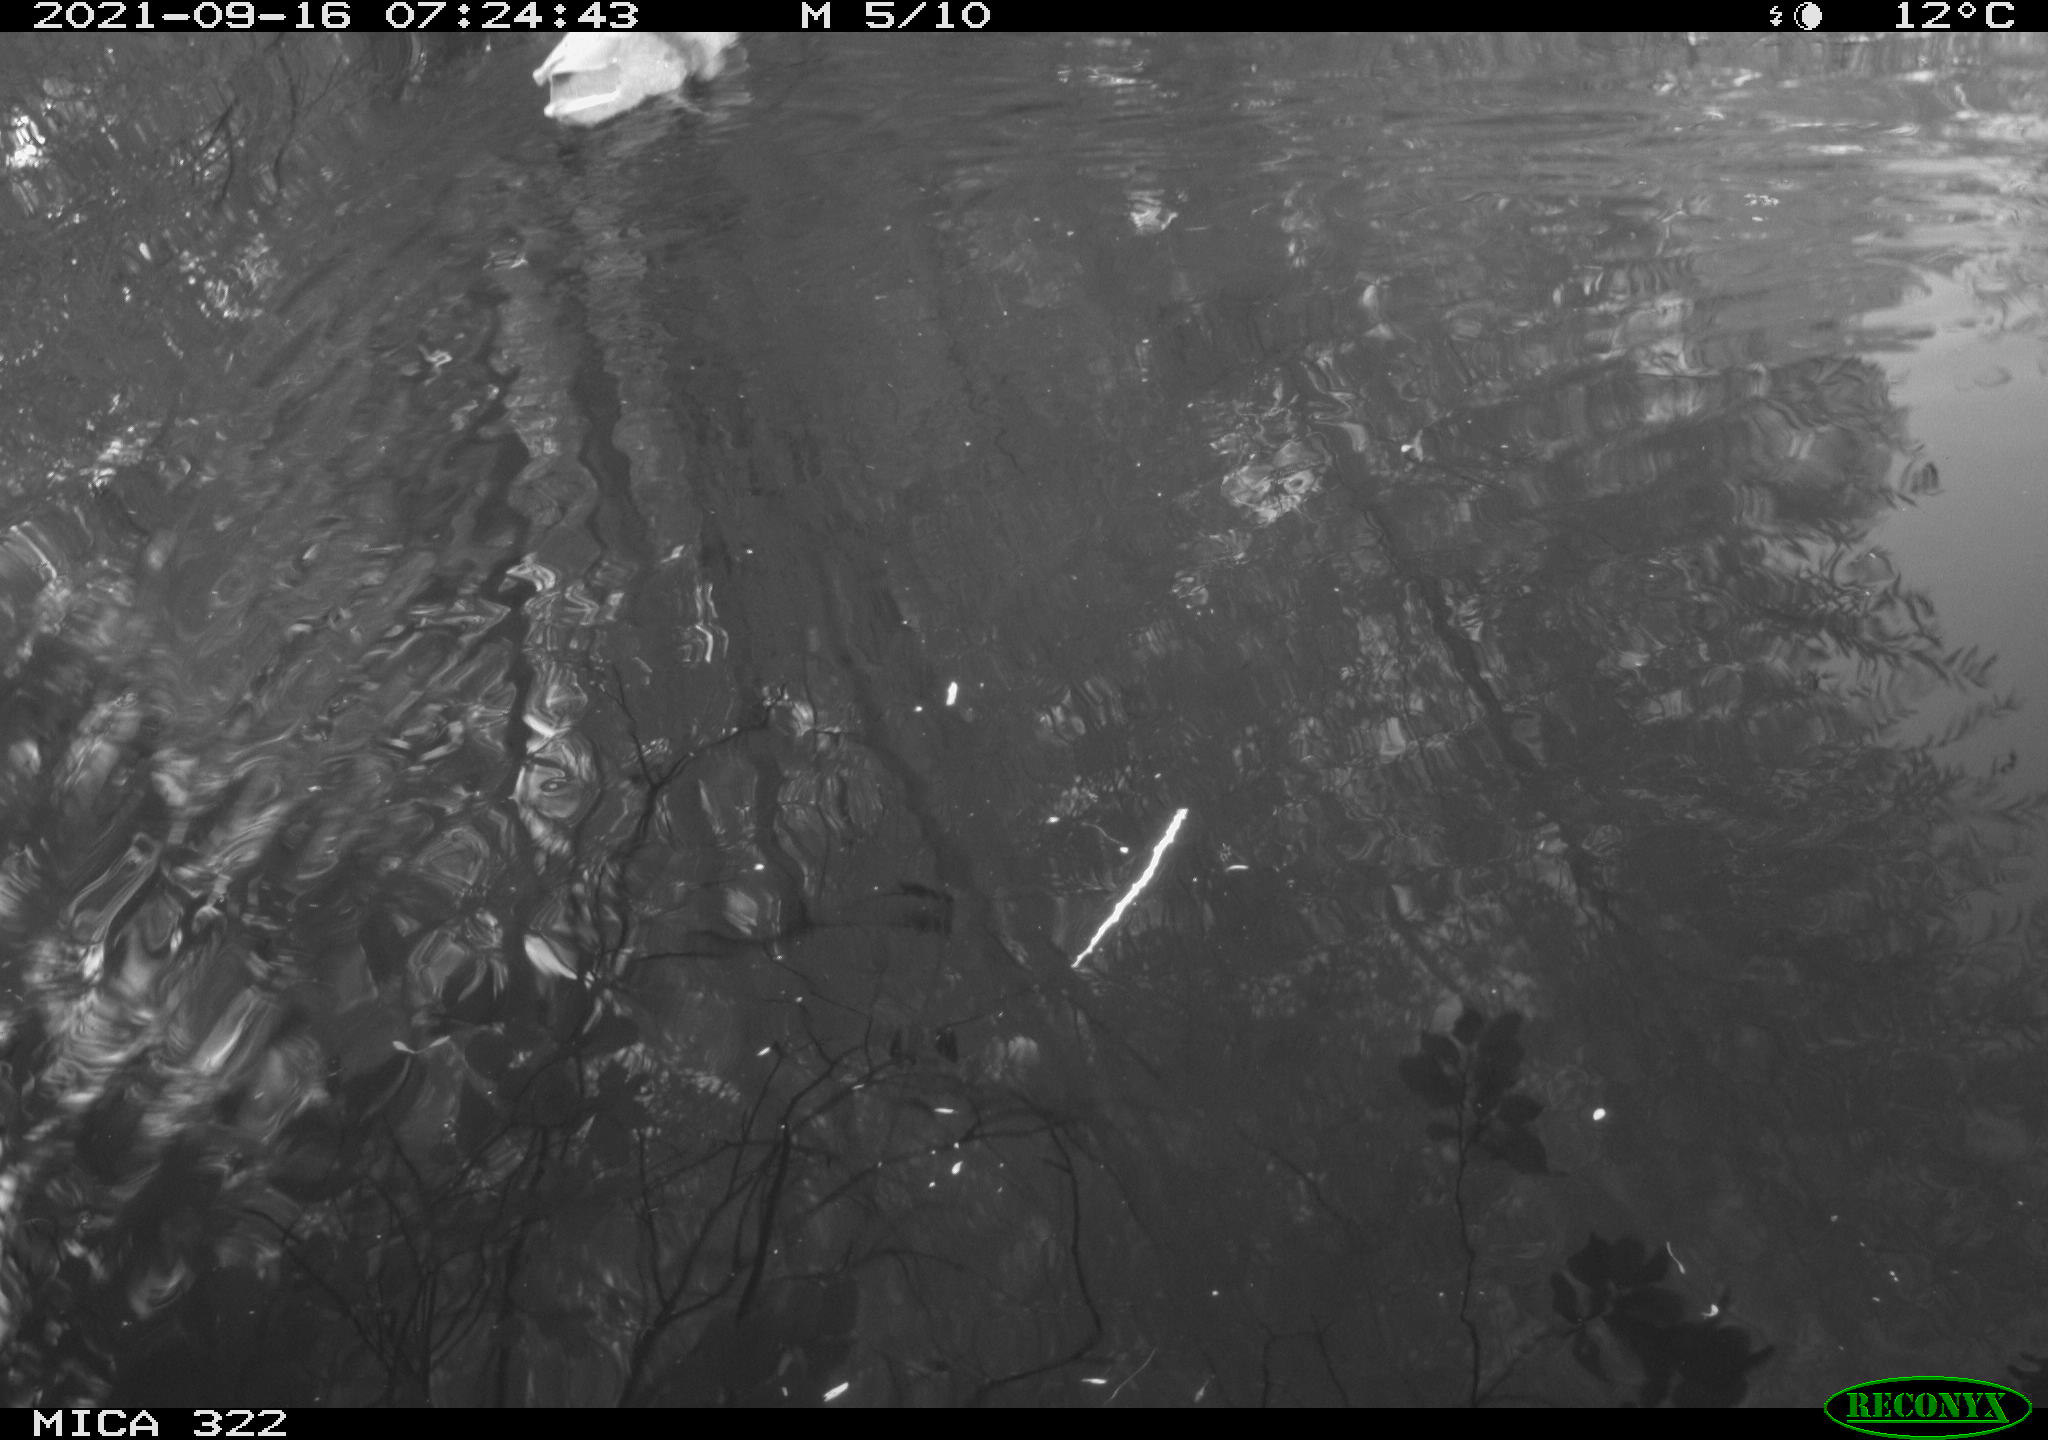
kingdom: Animalia
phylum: Chordata
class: Aves
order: Anseriformes
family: Anatidae
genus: Mareca
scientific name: Mareca strepera
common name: Gadwall
